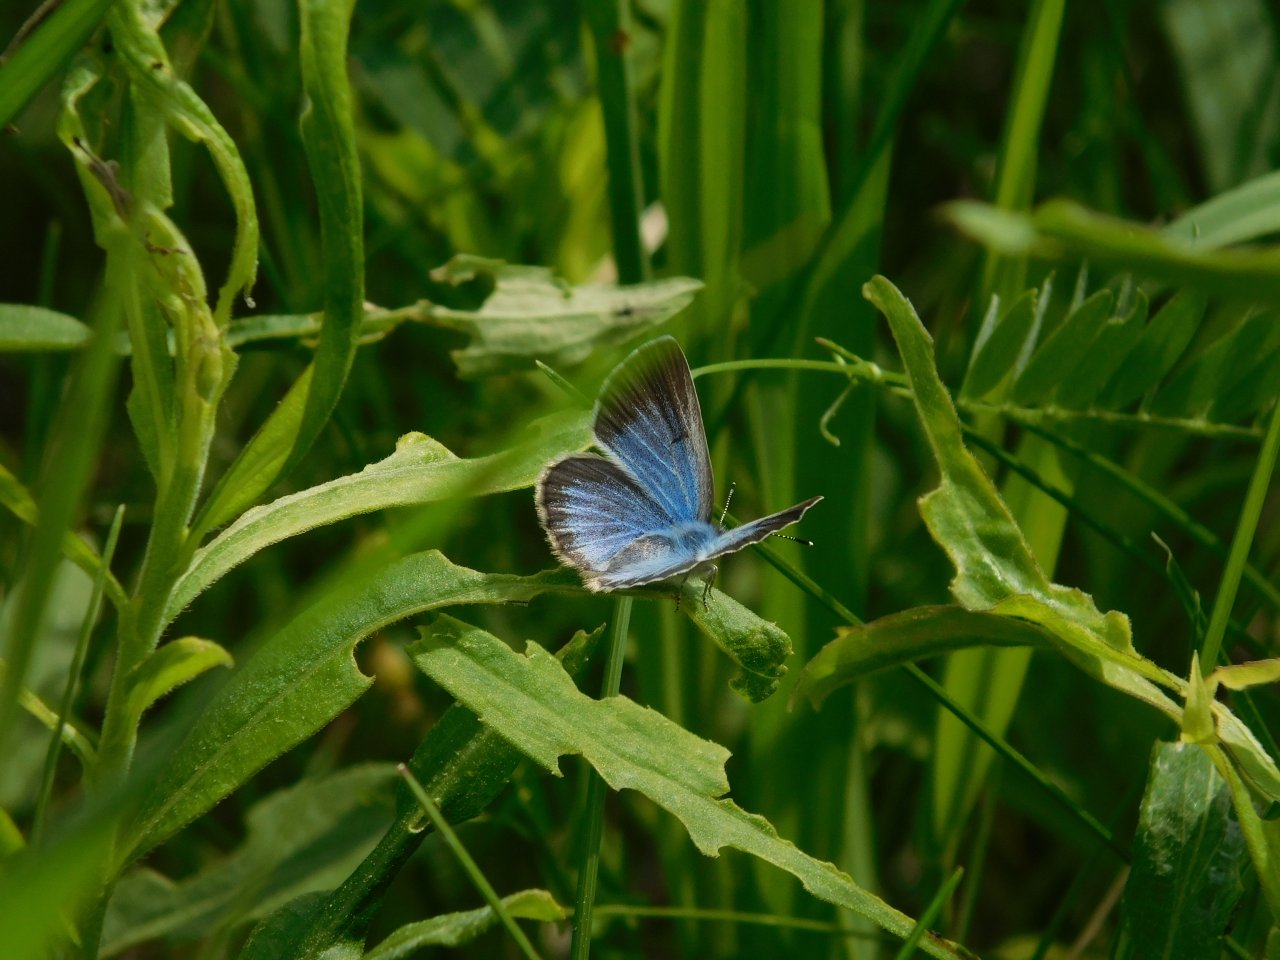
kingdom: Animalia
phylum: Arthropoda
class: Insecta
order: Lepidoptera
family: Lycaenidae
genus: Glaucopsyche
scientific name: Glaucopsyche lygdamus
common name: Silvery Blue
